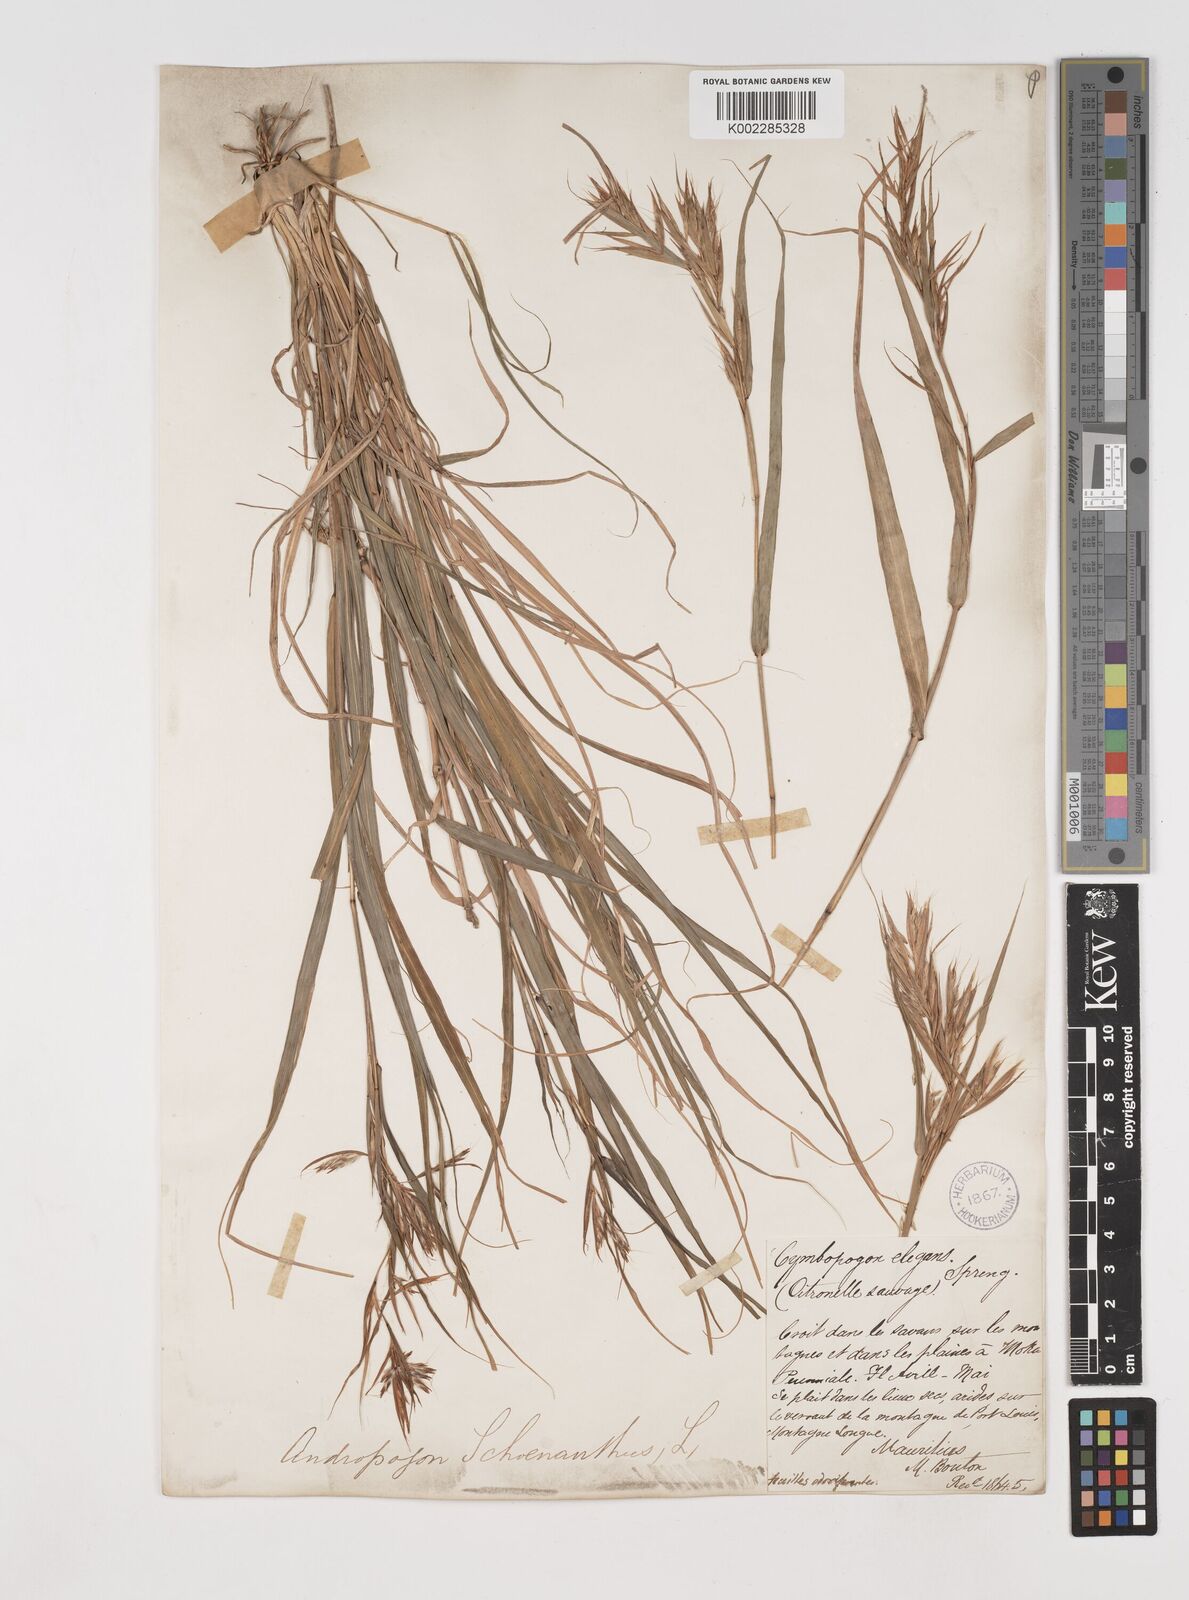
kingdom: Plantae
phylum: Tracheophyta
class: Liliopsida
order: Poales
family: Poaceae
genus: Cymbopogon
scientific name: Cymbopogon pruinosus
